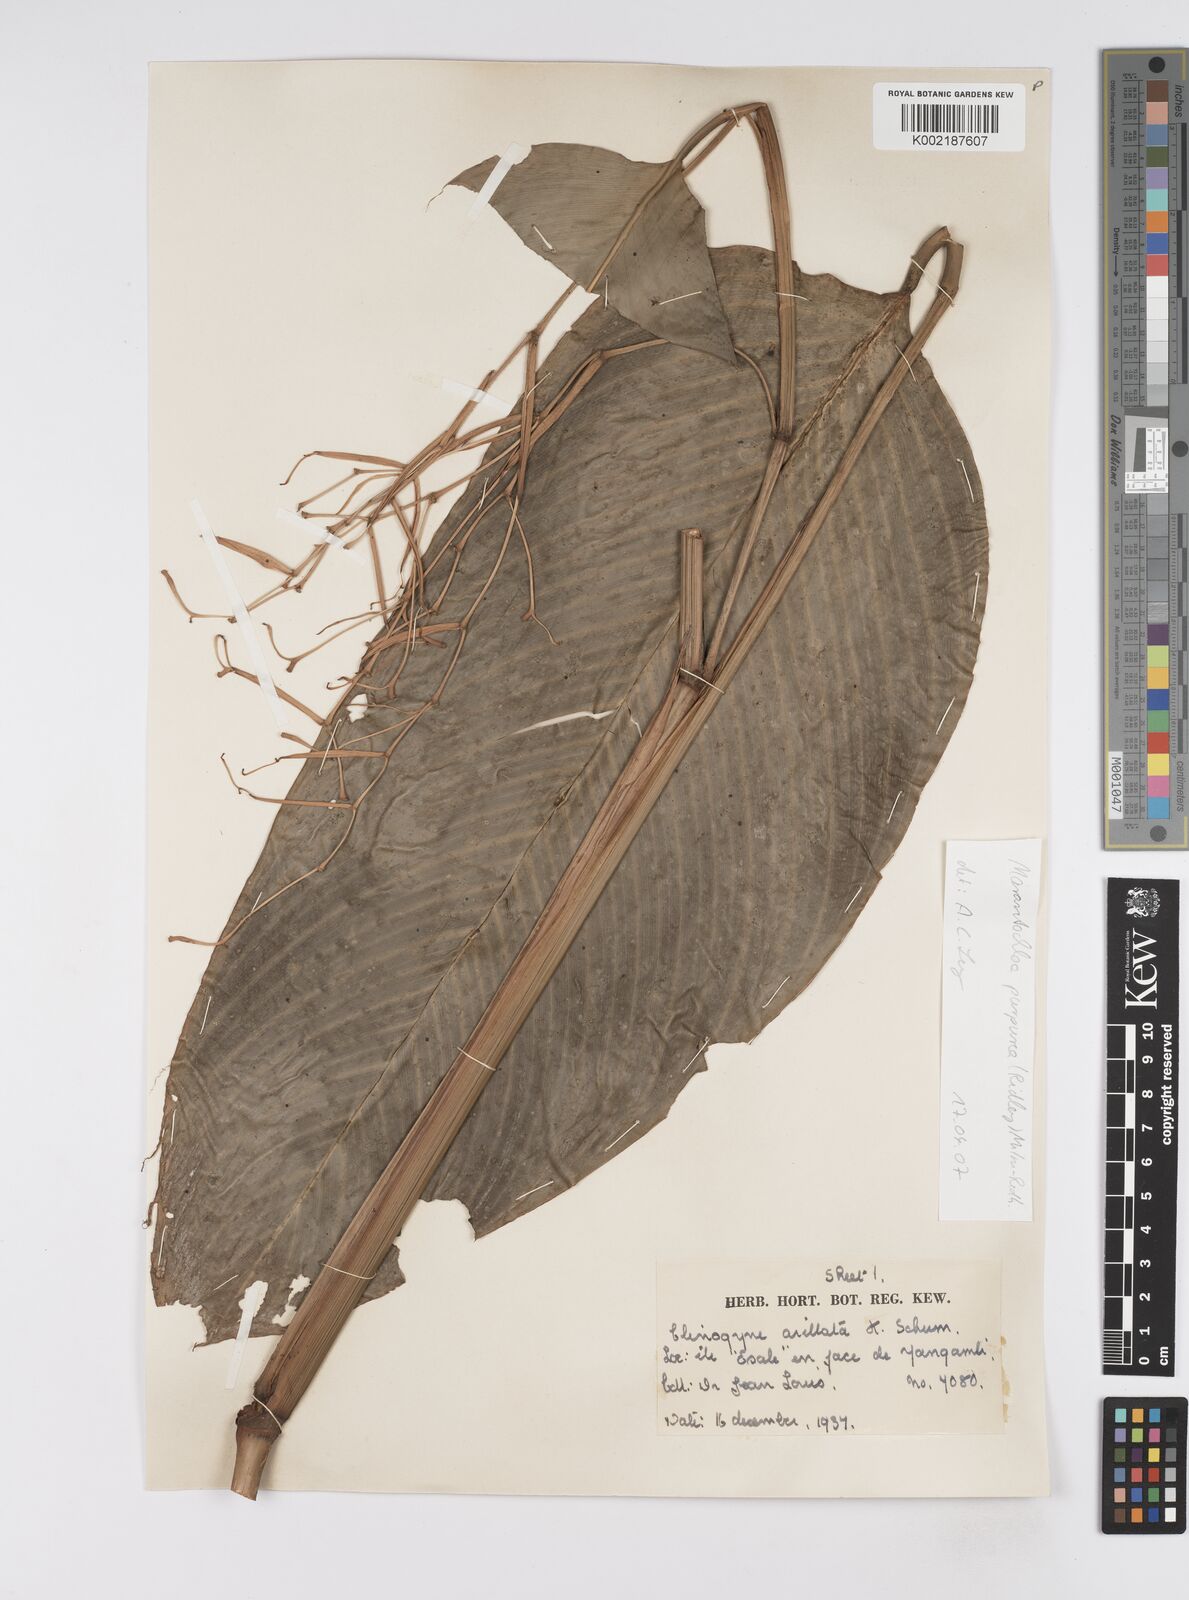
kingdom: Plantae
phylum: Tracheophyta
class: Liliopsida
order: Zingiberales
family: Marantaceae
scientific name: Marantaceae
